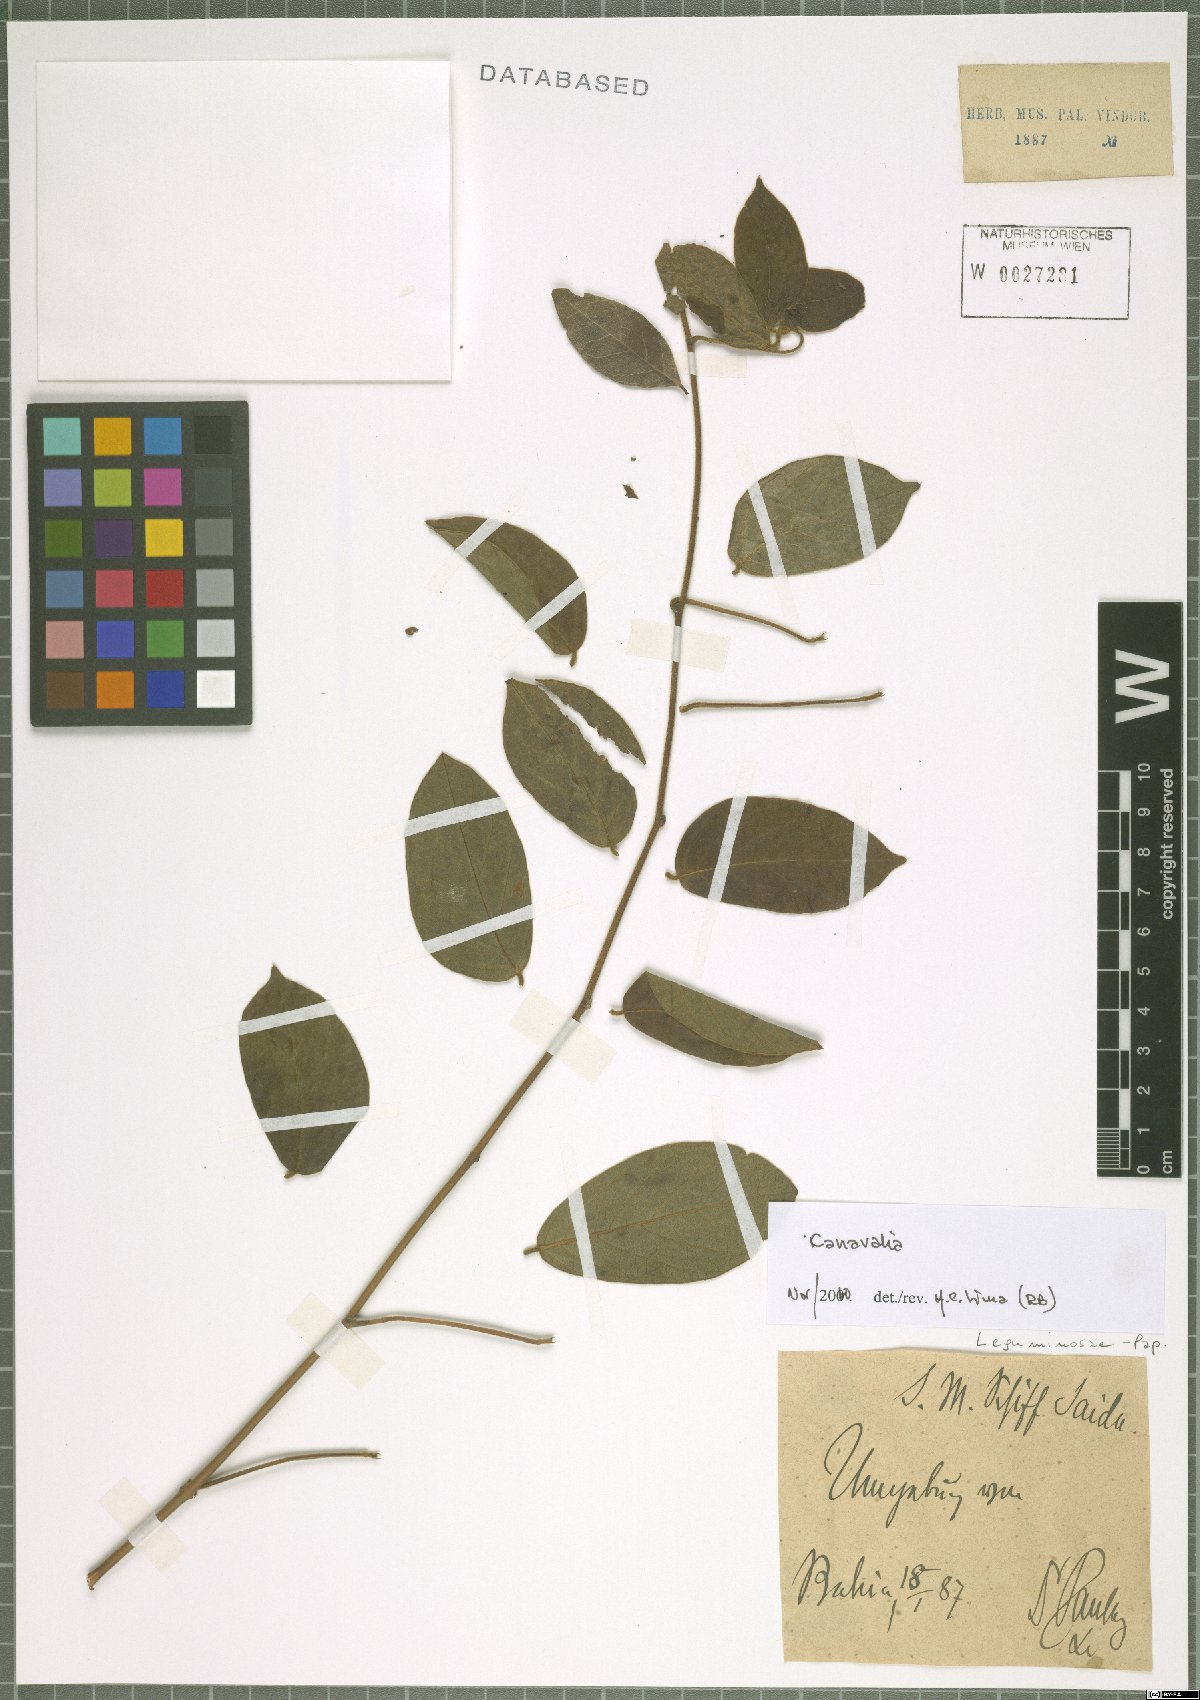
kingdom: Plantae
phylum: Tracheophyta
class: Magnoliopsida
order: Fabales
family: Fabaceae
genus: Canavalia
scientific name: Canavalia
